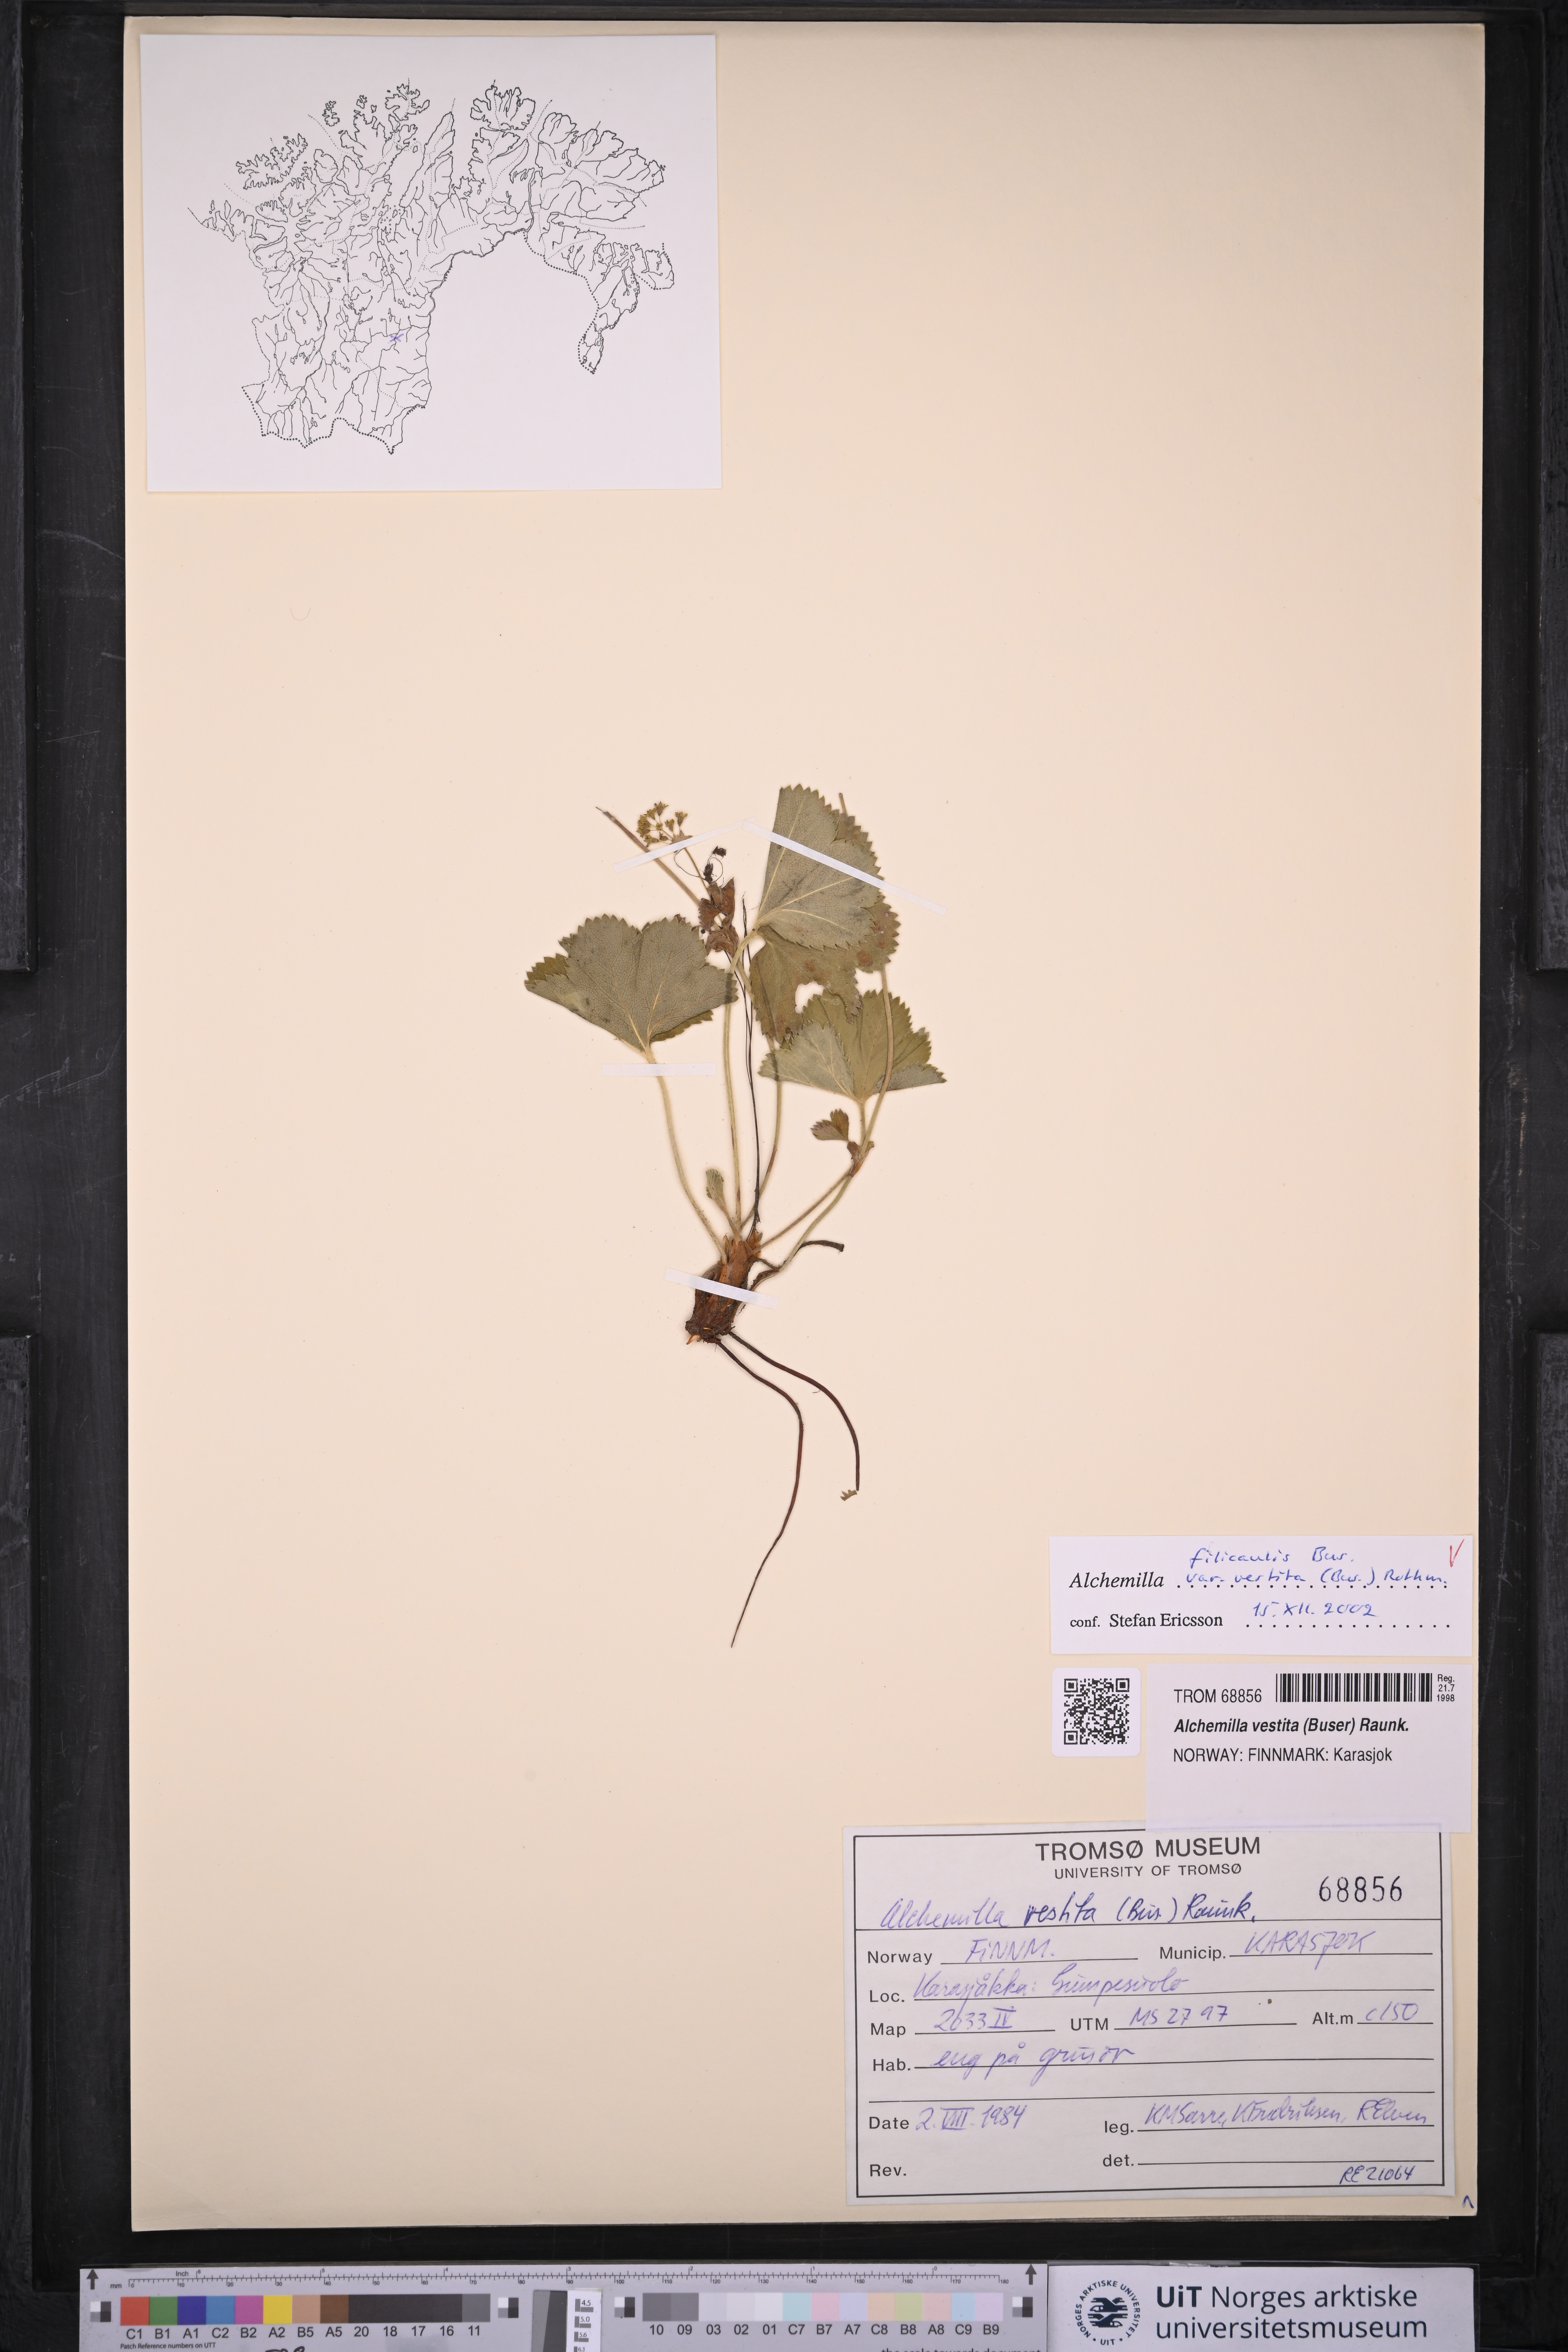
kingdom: Plantae
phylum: Tracheophyta
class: Magnoliopsida
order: Rosales
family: Rosaceae
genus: Alchemilla
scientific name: Alchemilla filicaulis
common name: Hairy lady's-mantle
